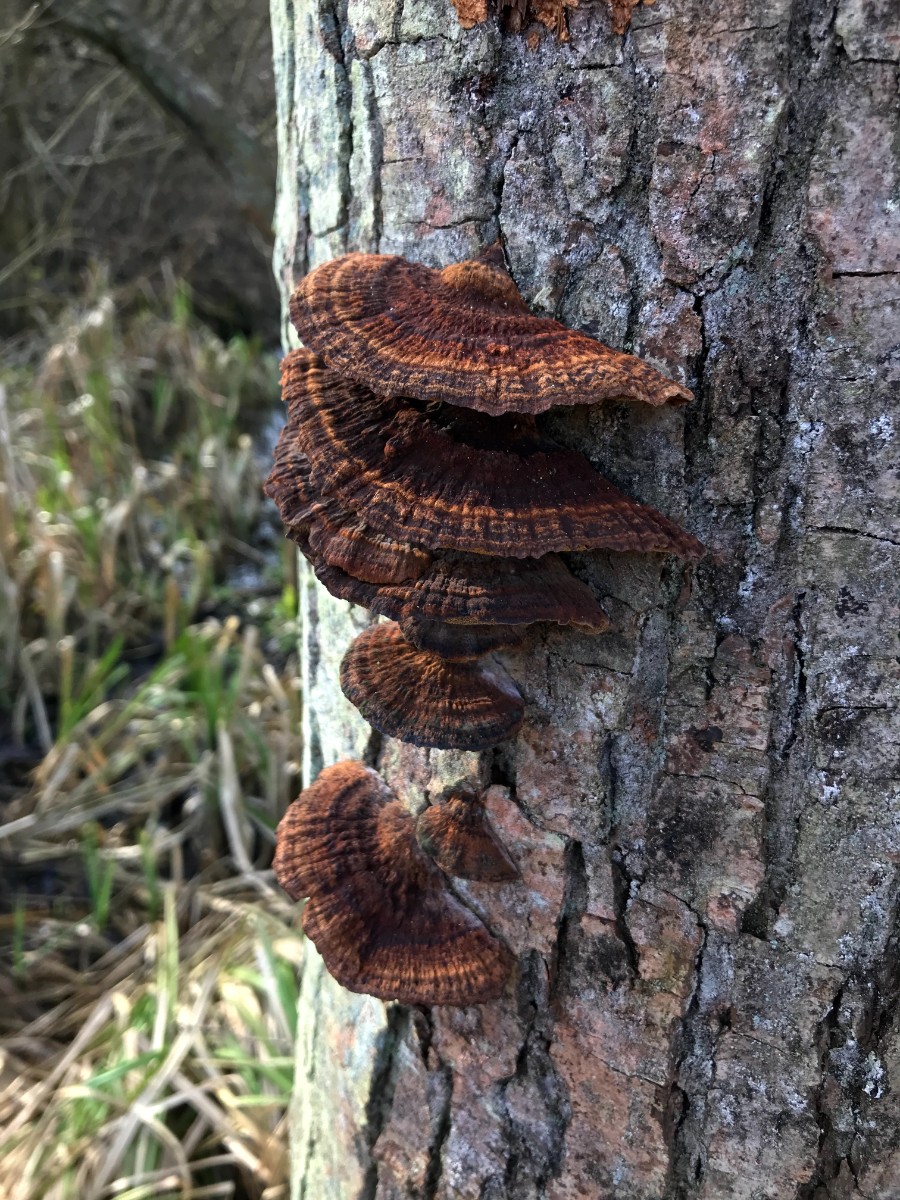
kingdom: Fungi
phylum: Basidiomycota
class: Agaricomycetes
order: Hymenochaetales
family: Hymenochaetaceae
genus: Xanthoporia
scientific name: Xanthoporia radiata
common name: elle-spejlporesvamp
